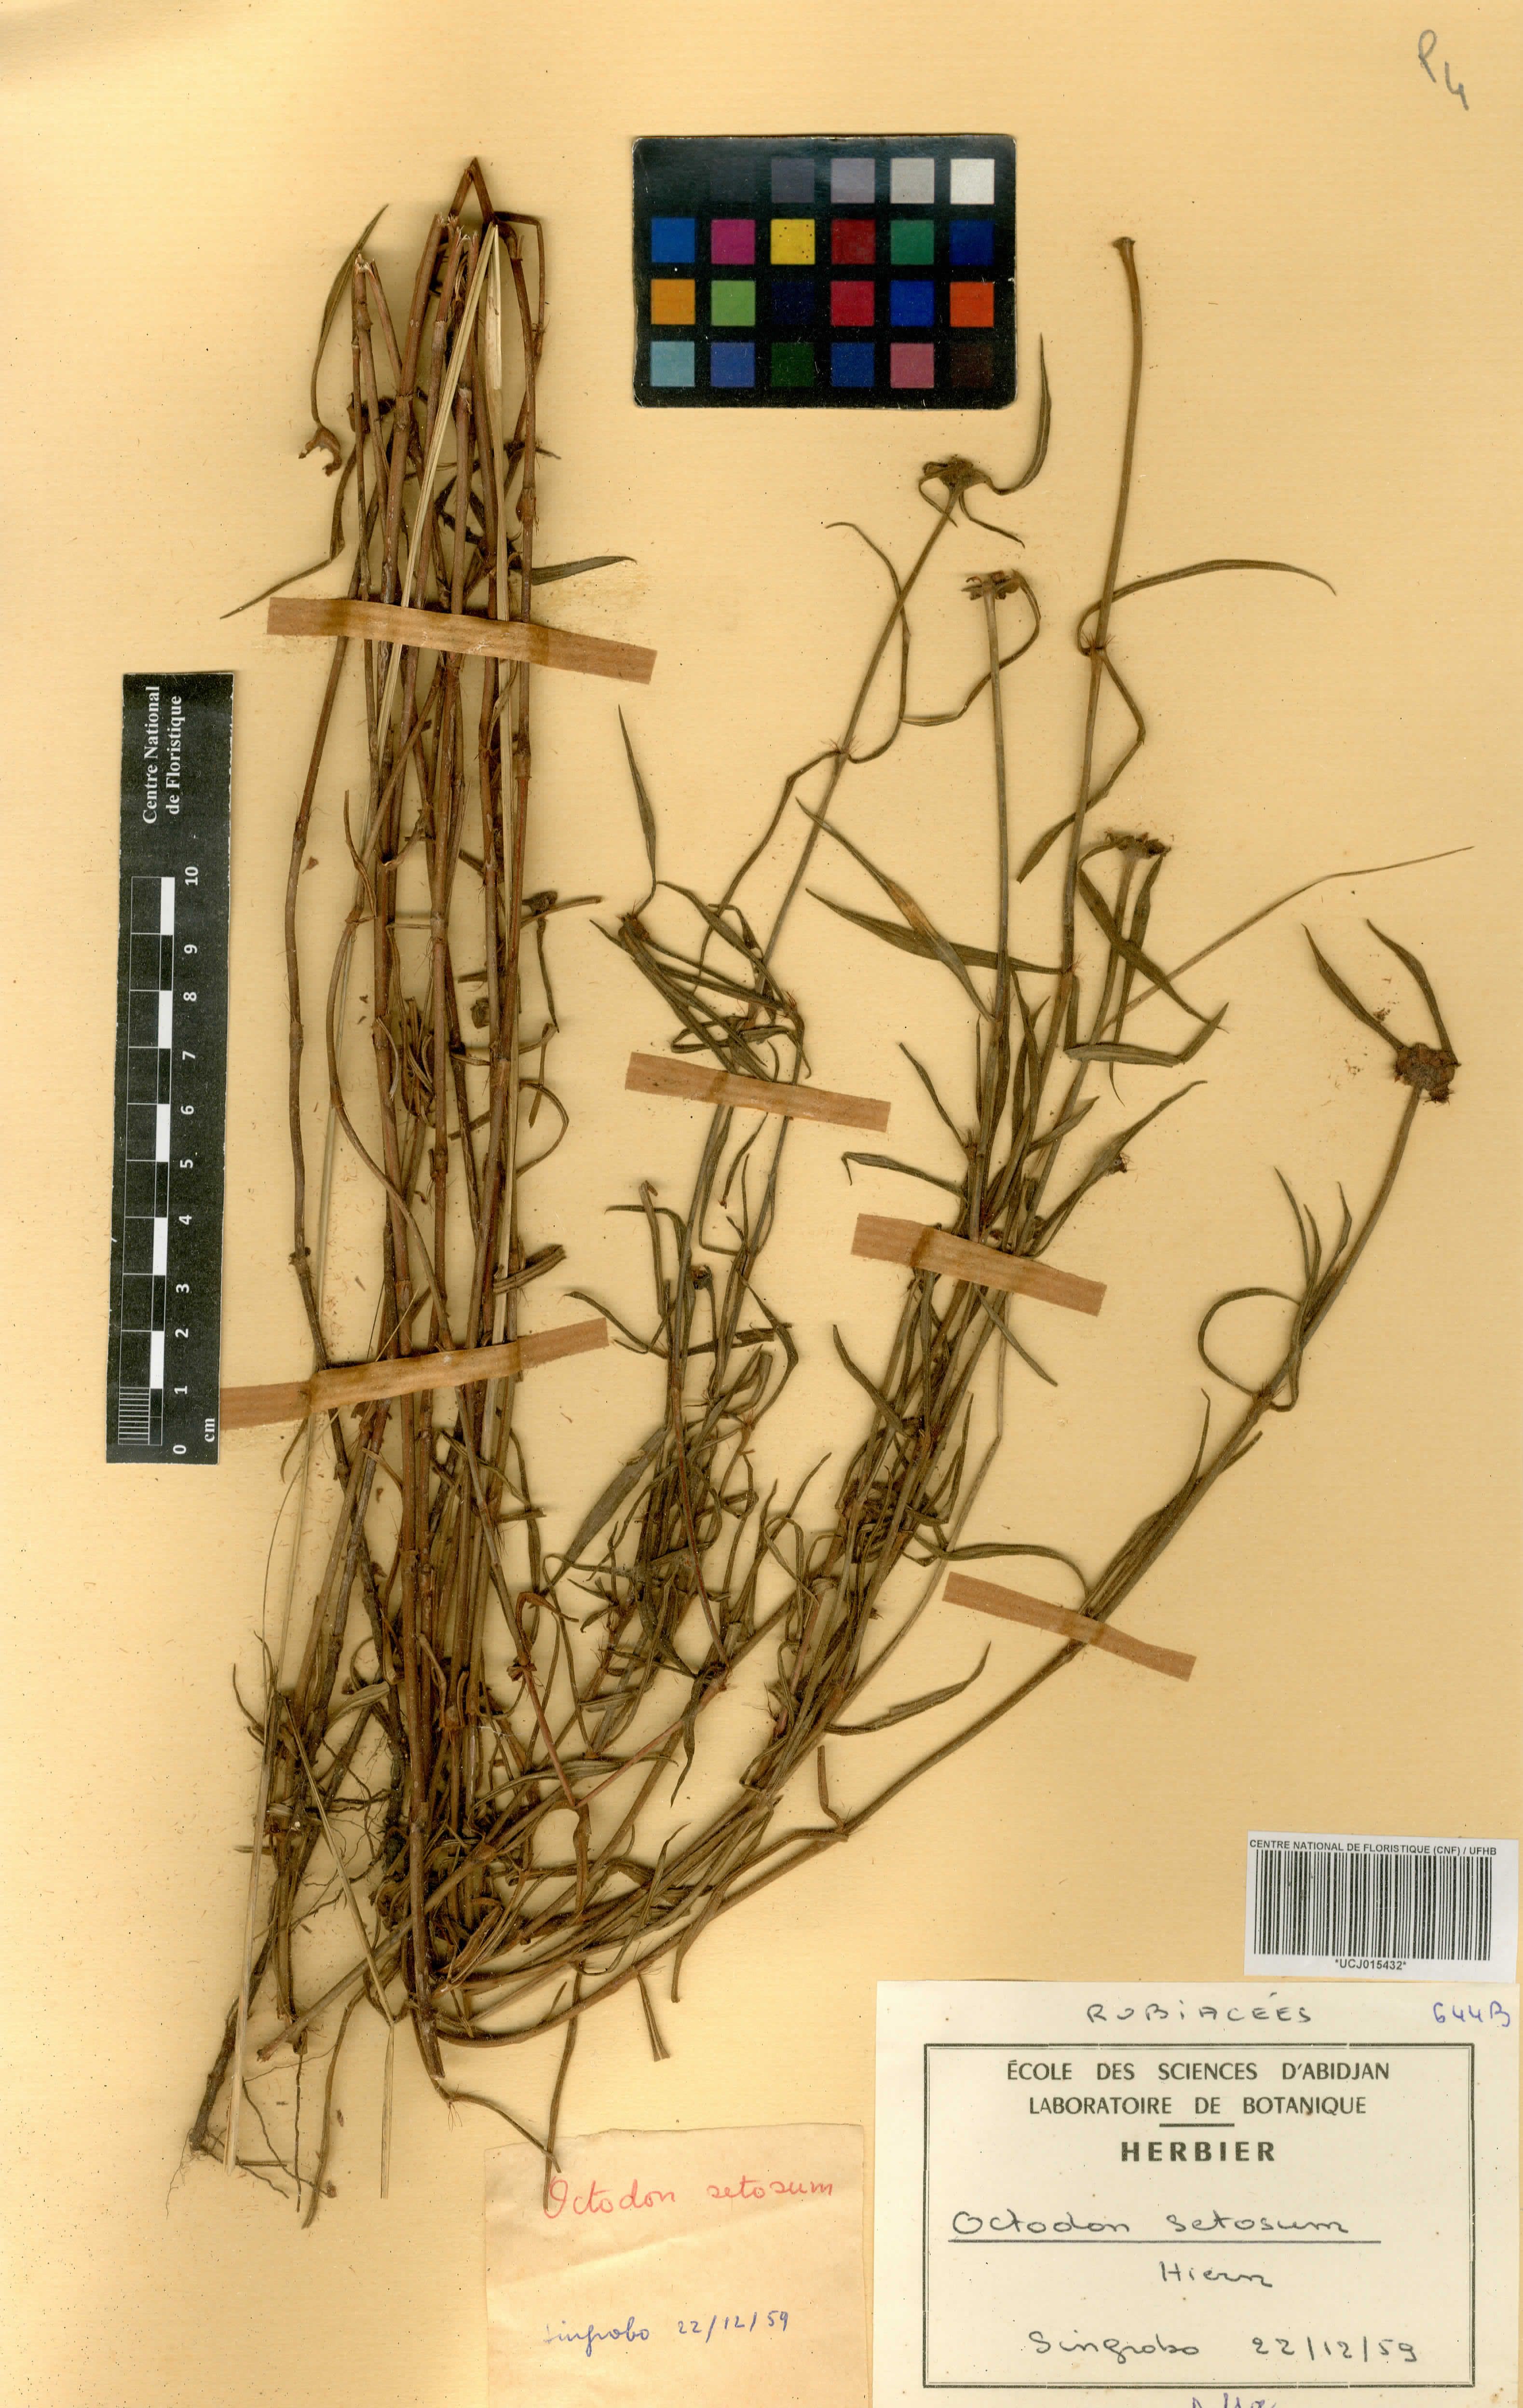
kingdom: Plantae
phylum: Tracheophyta
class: Magnoliopsida
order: Gentianales
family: Rubiaceae
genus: Spermacoce
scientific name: Spermacoce octodon
